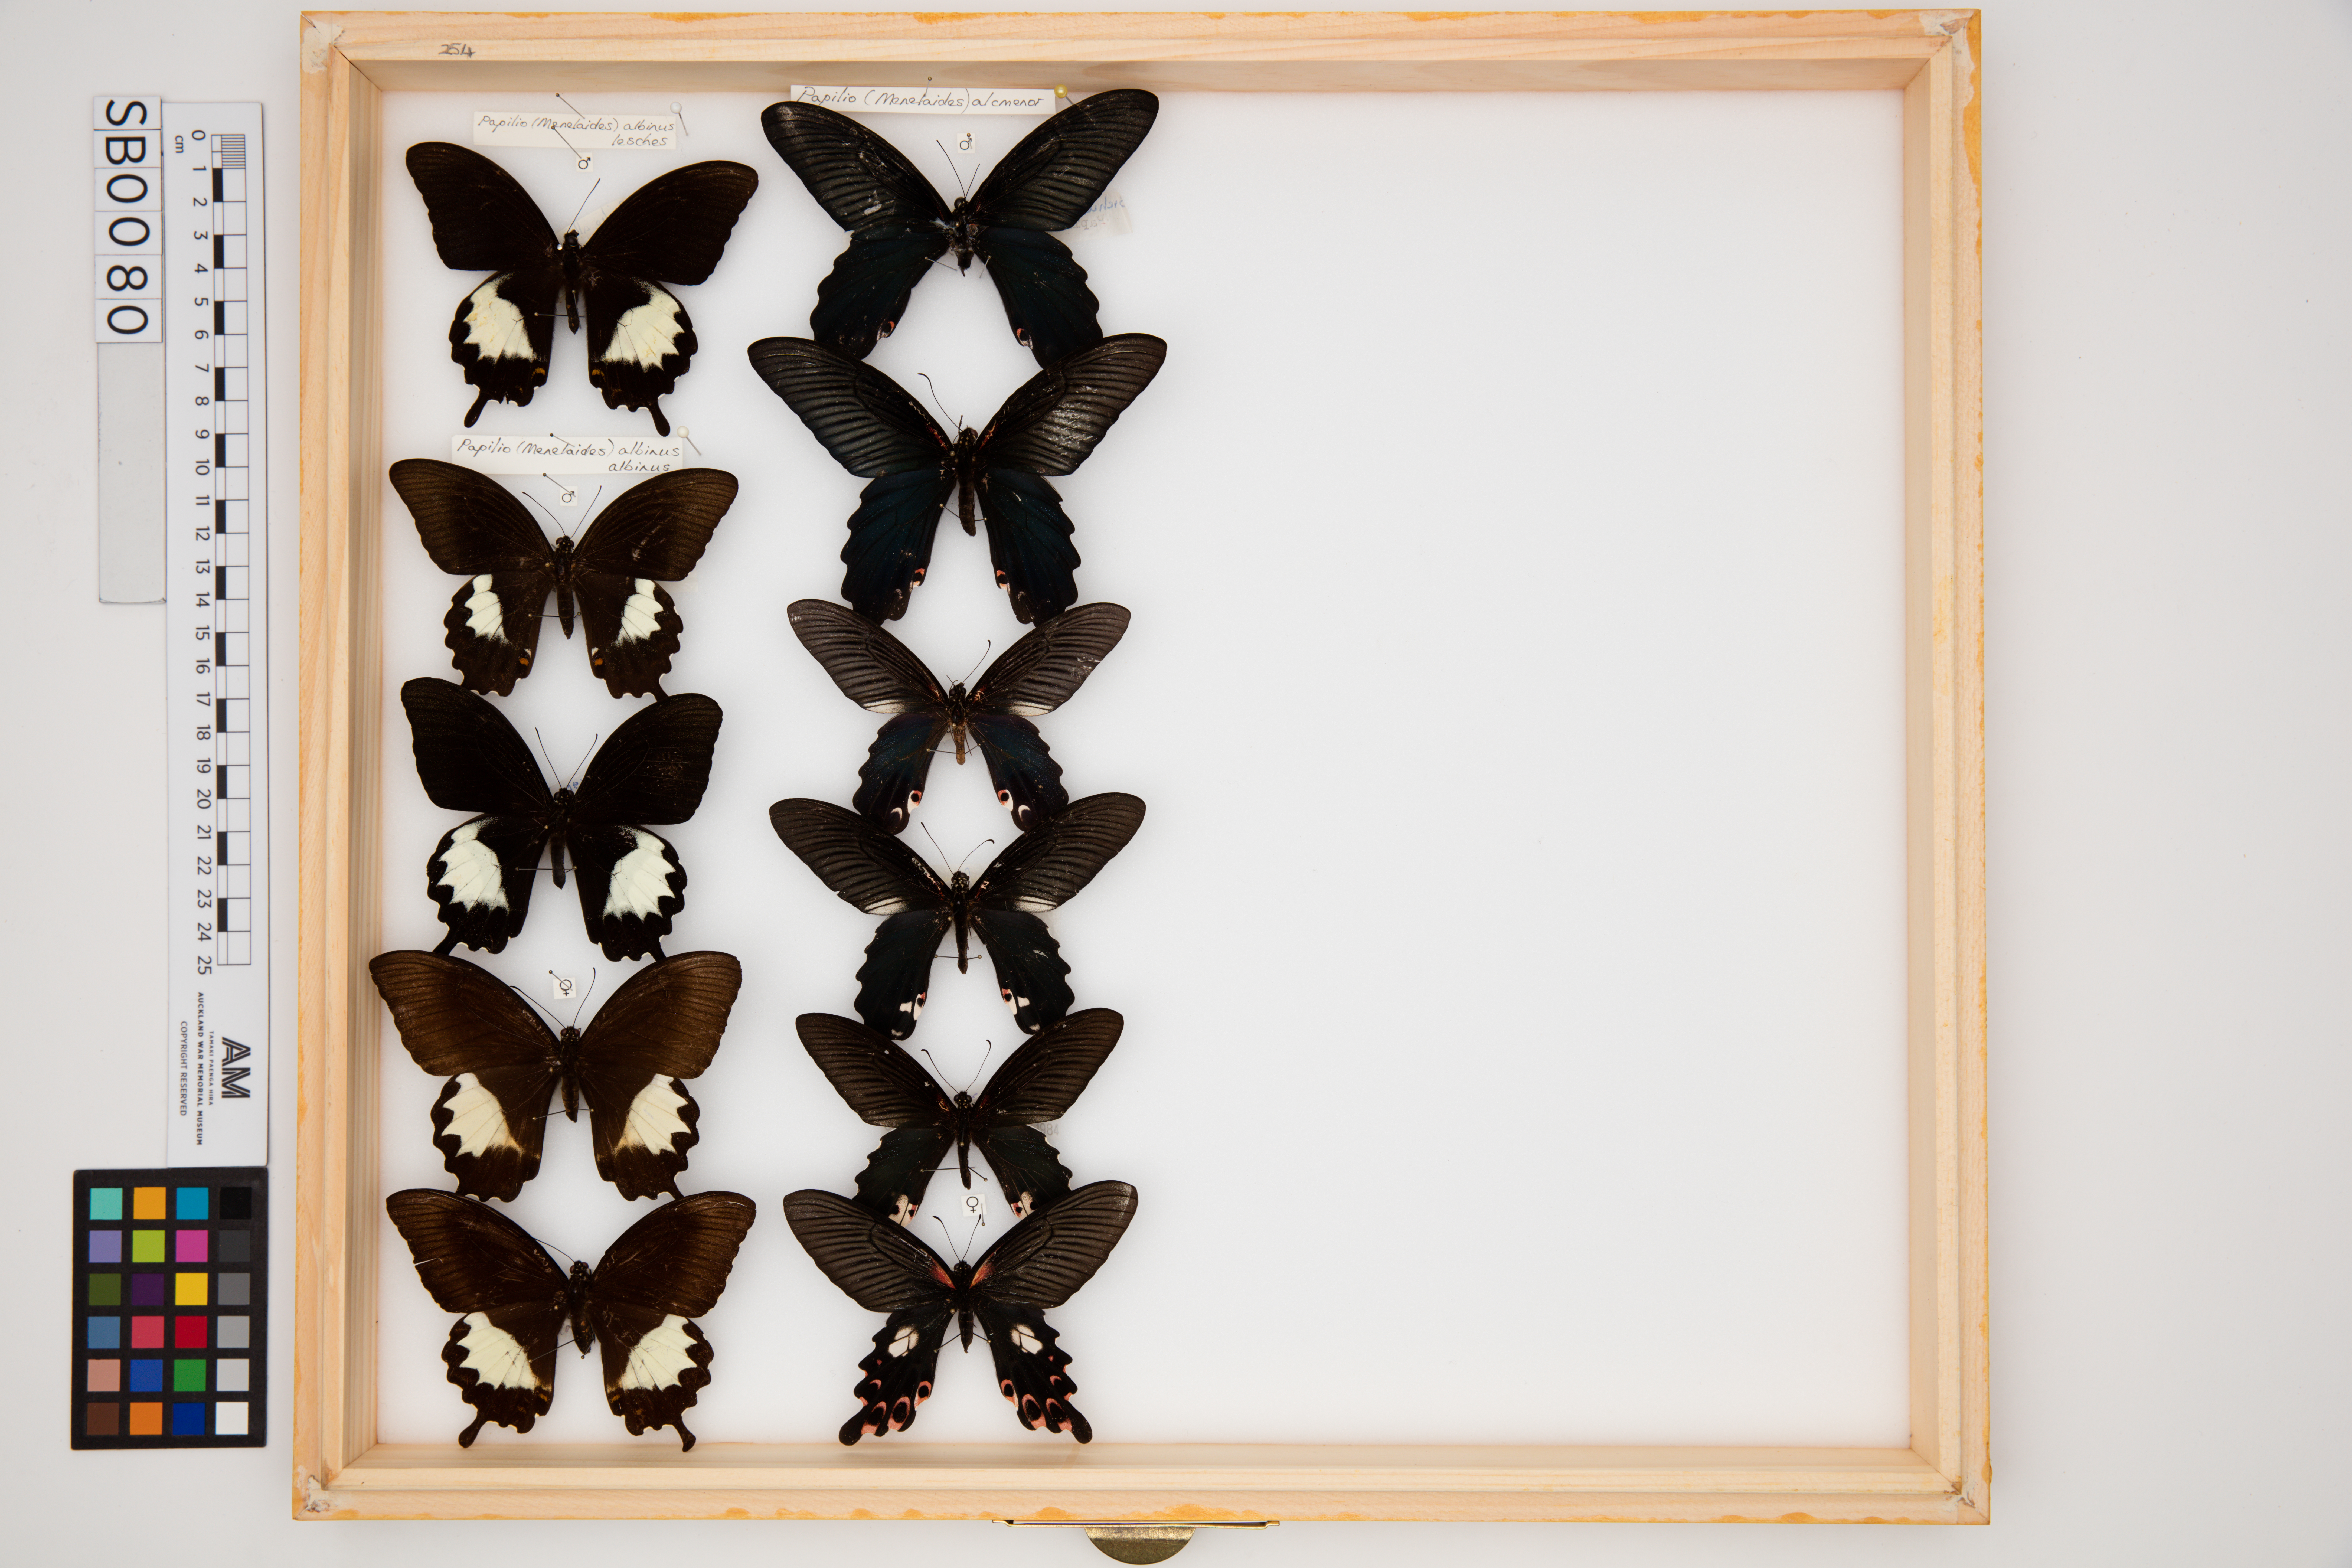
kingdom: Animalia
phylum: Arthropoda
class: Insecta
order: Lepidoptera
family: Papilionidae
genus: Papilio
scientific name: Papilio alcmenor
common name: Redbreast
